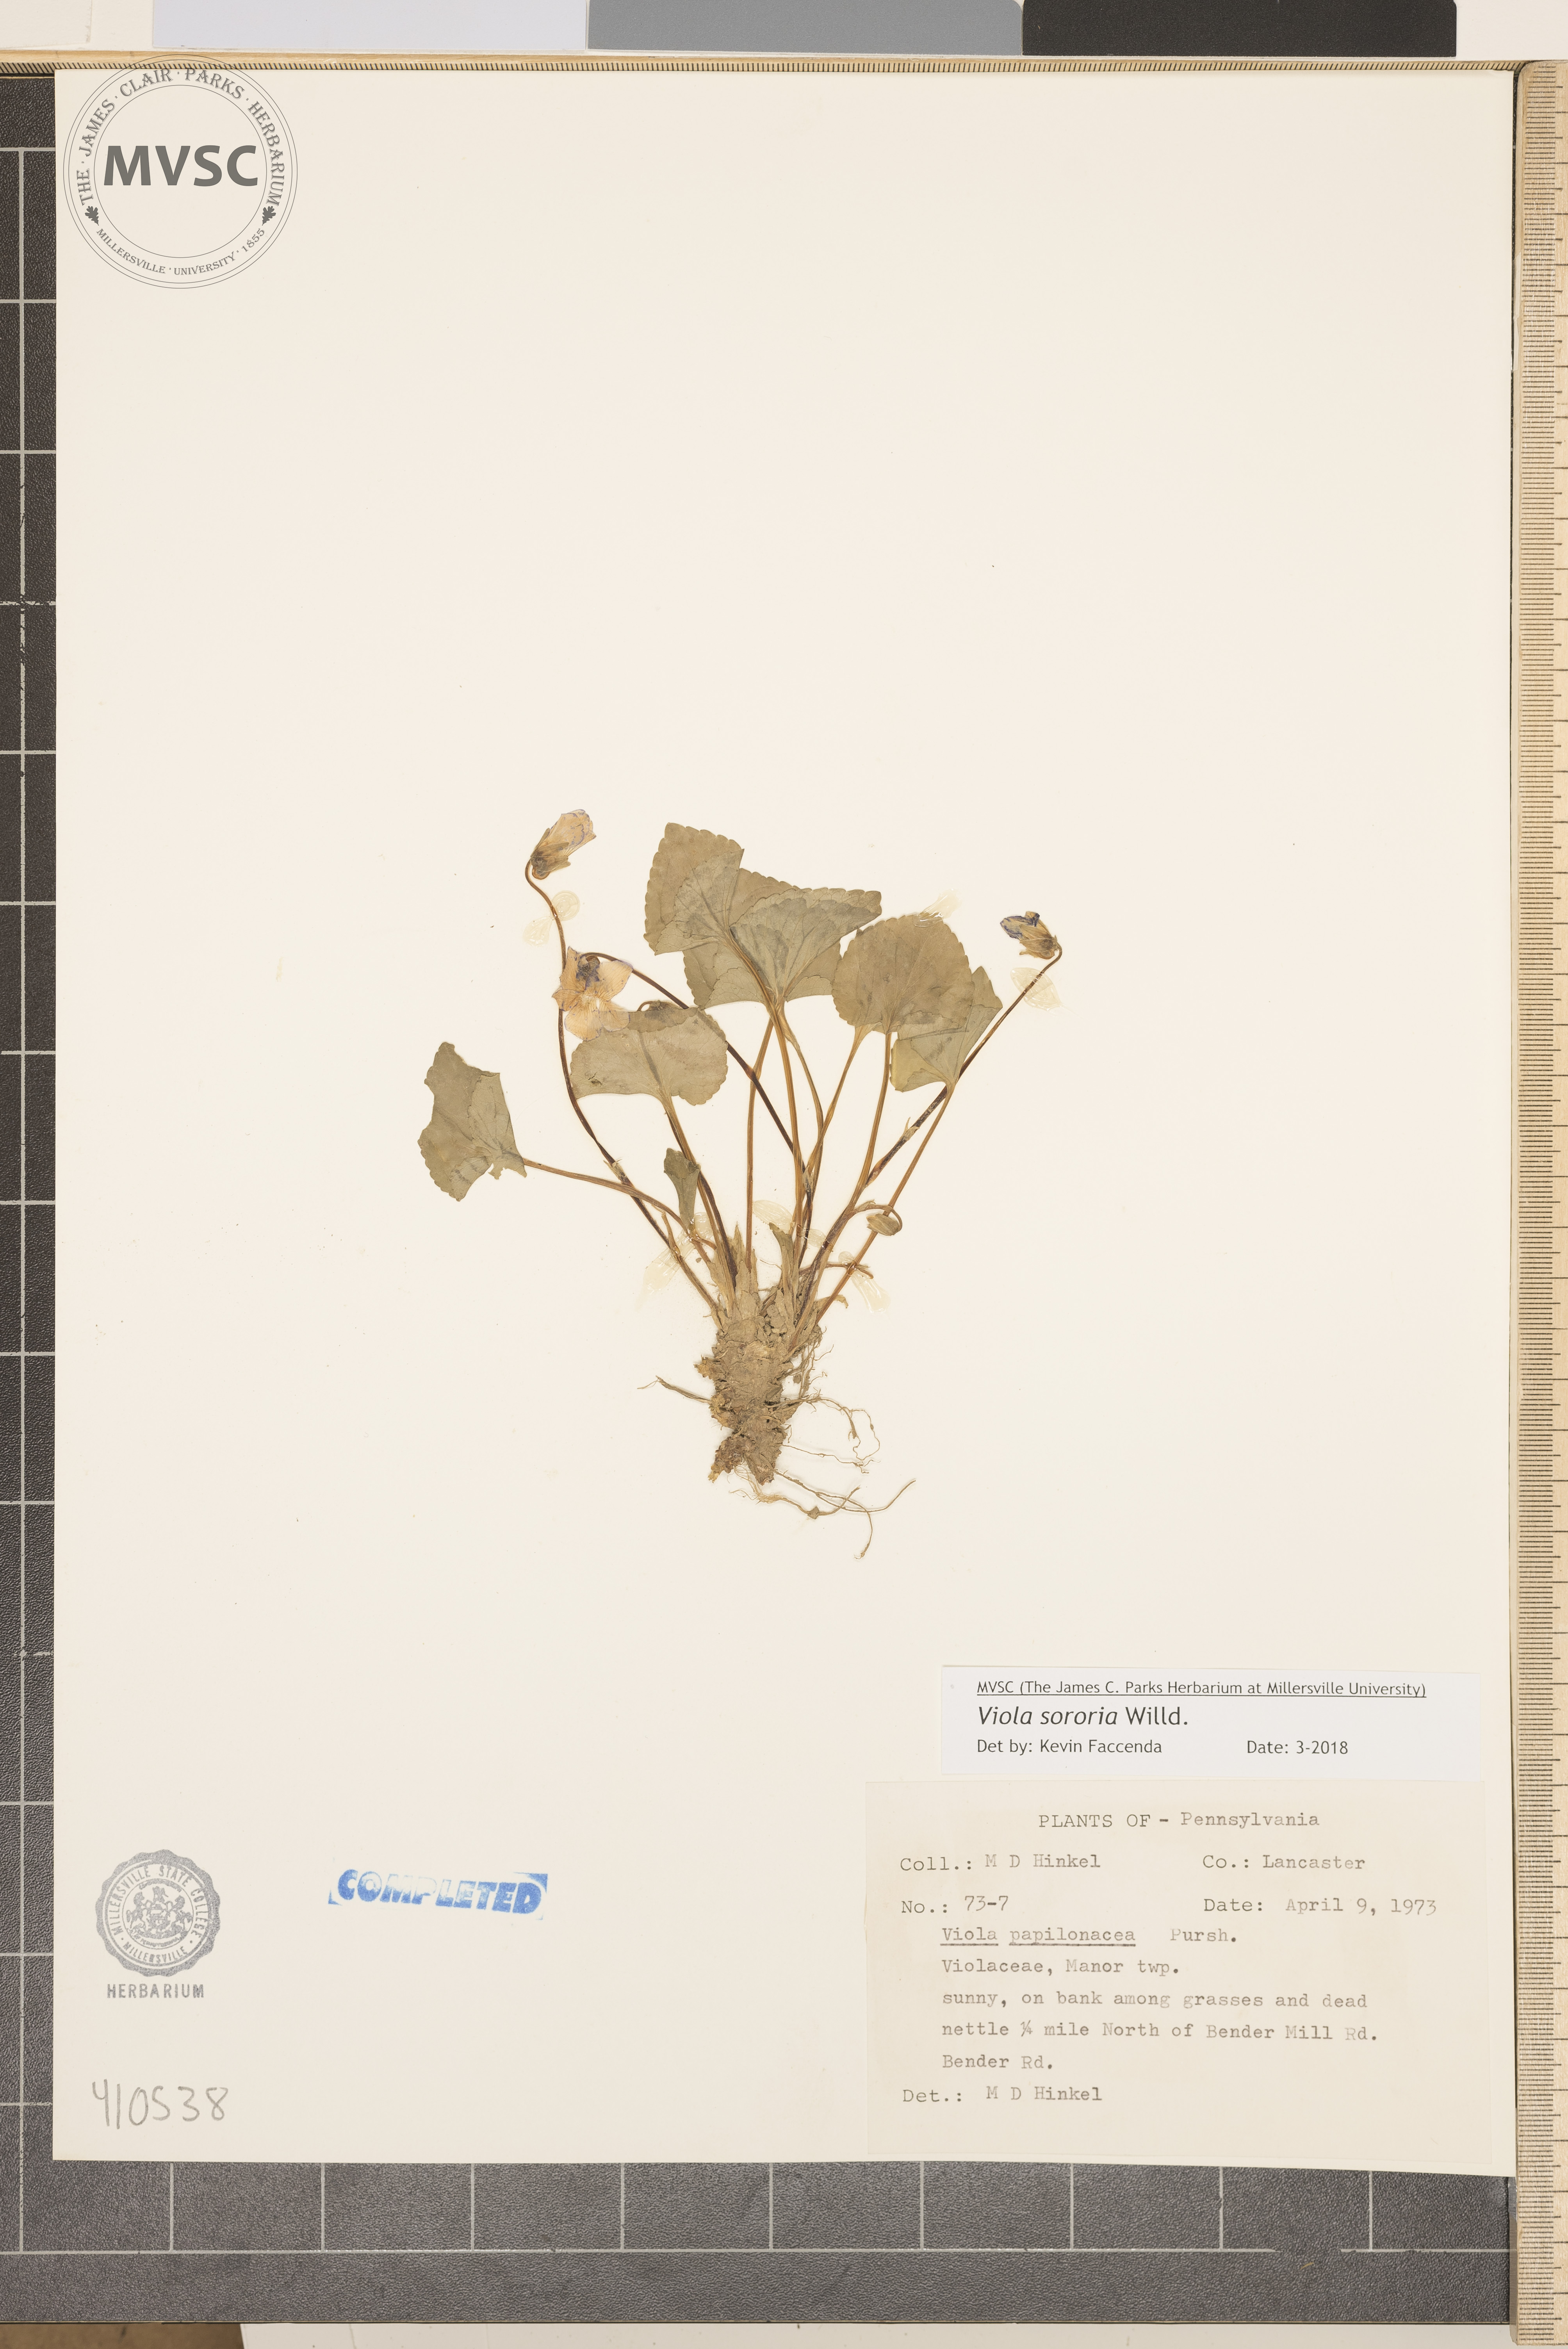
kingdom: Plantae
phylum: Tracheophyta
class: Magnoliopsida
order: Malpighiales
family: Violaceae
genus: Viola
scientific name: Viola sororia
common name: Dooryard violet
